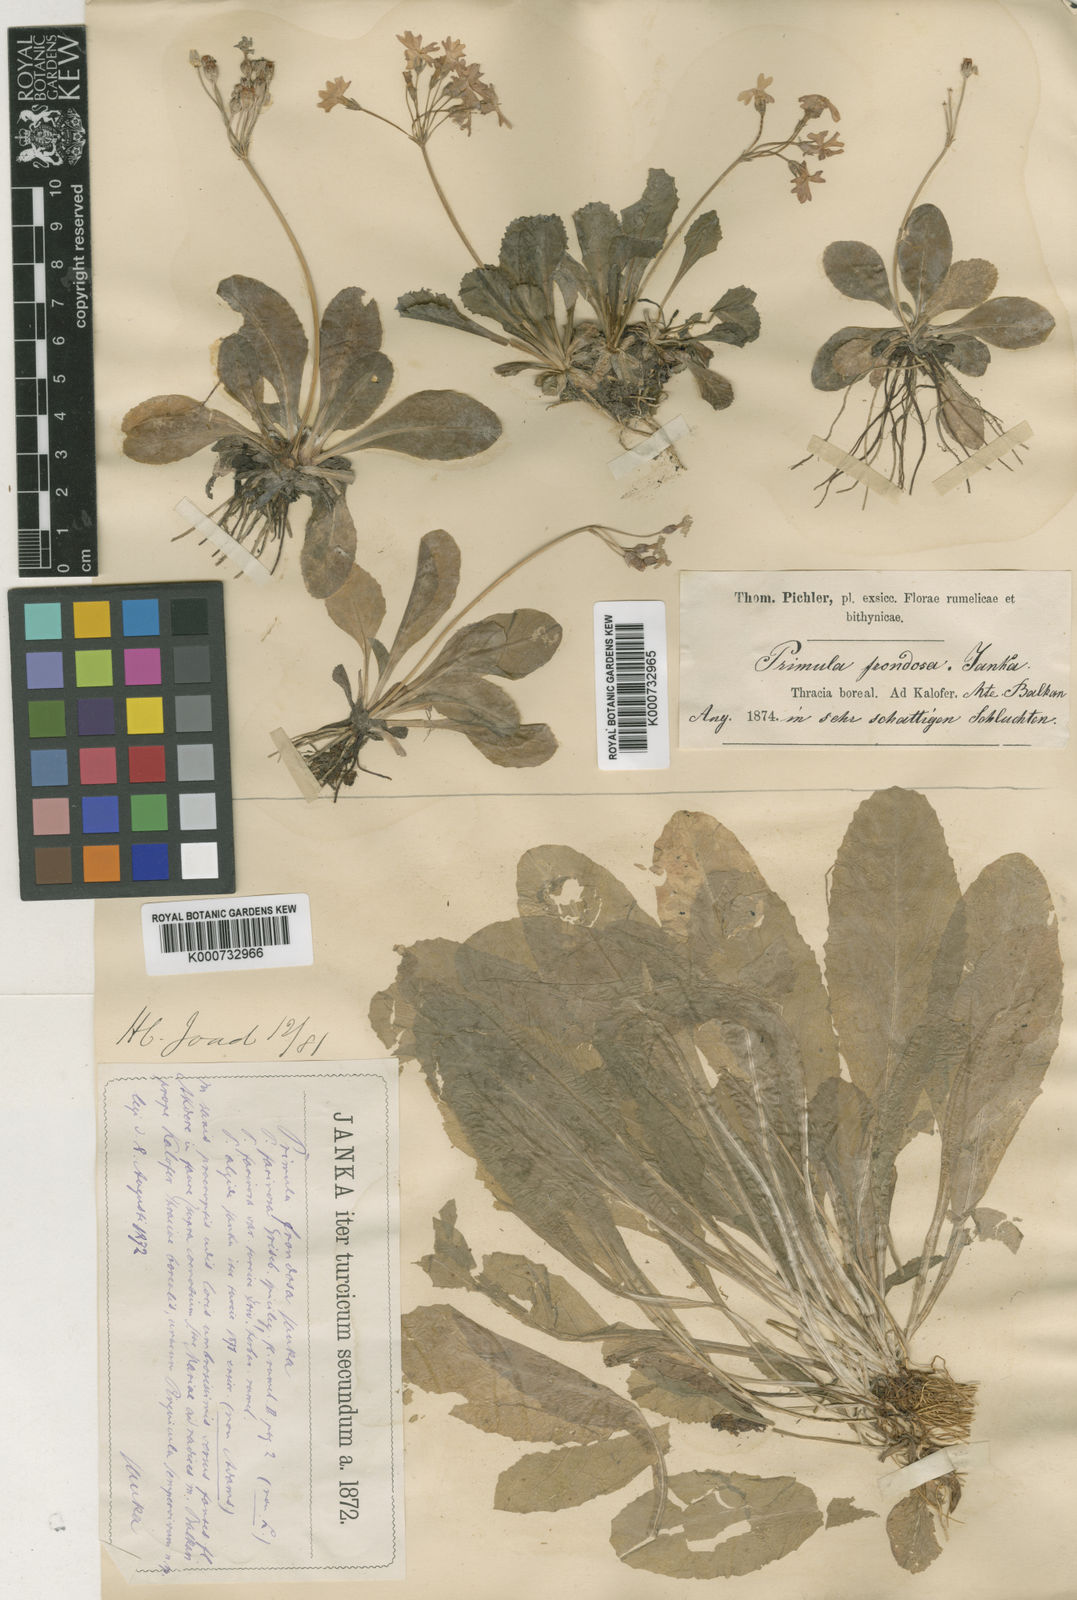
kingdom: Plantae
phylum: Tracheophyta
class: Magnoliopsida
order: Ericales
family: Primulaceae
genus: Primula
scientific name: Primula frondosa
